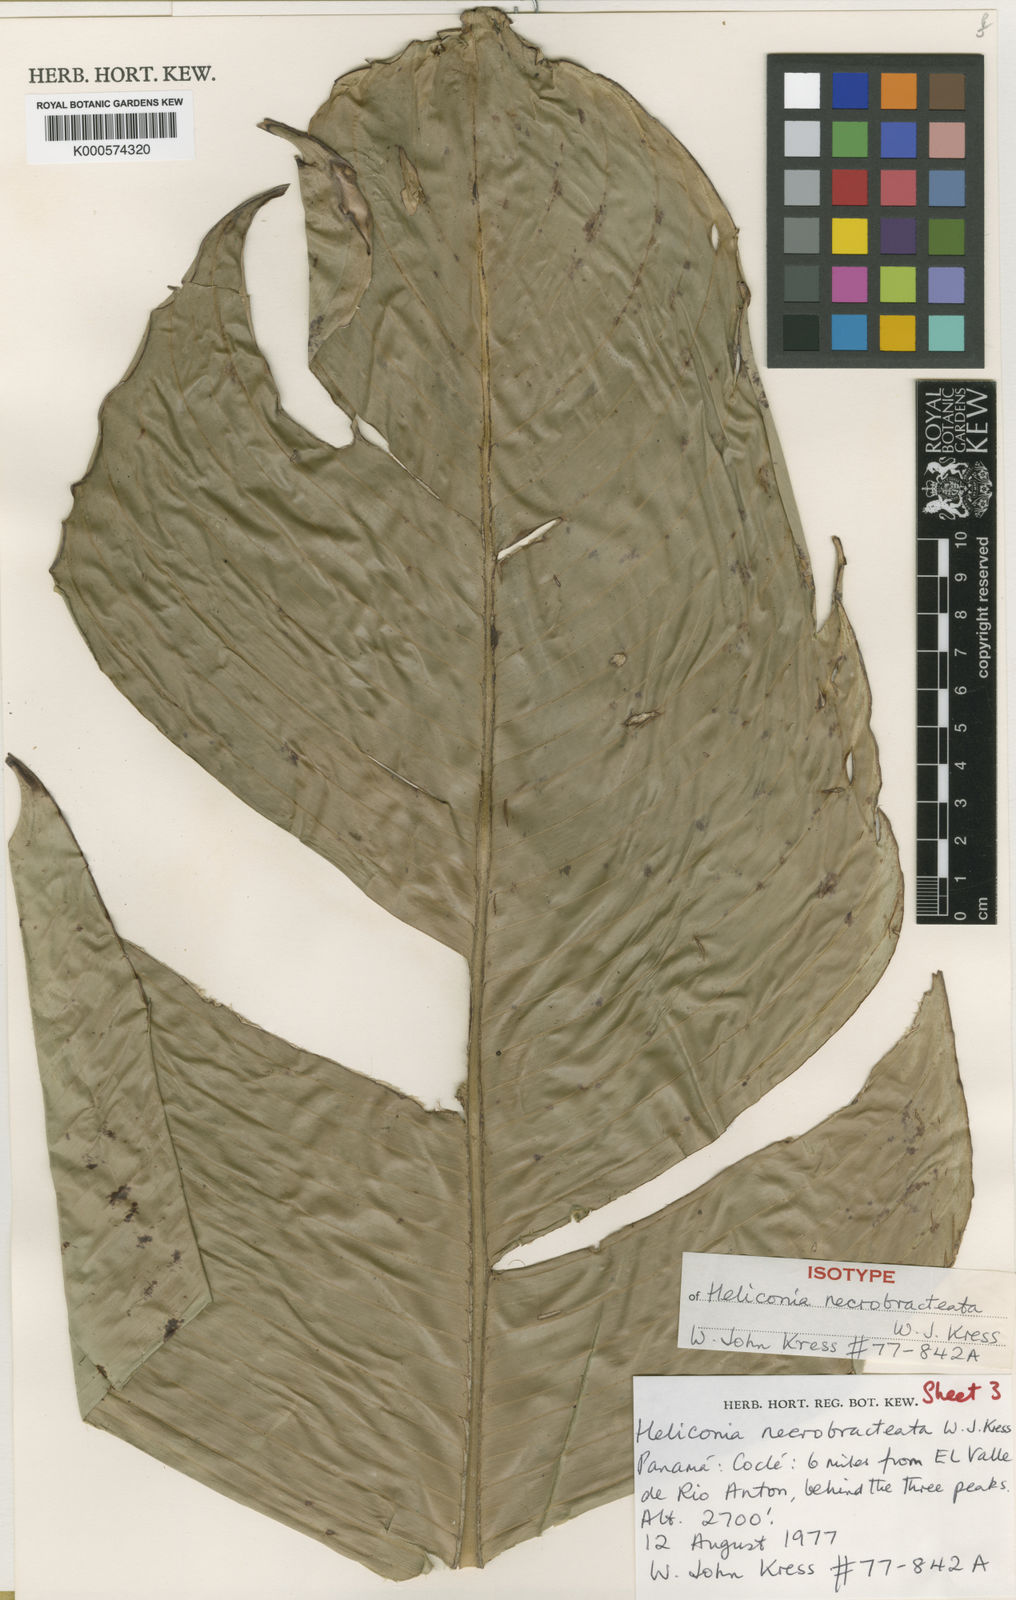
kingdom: Plantae
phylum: Tracheophyta
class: Liliopsida
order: Zingiberales
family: Heliconiaceae
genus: Heliconia
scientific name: Heliconia necrobracteata
